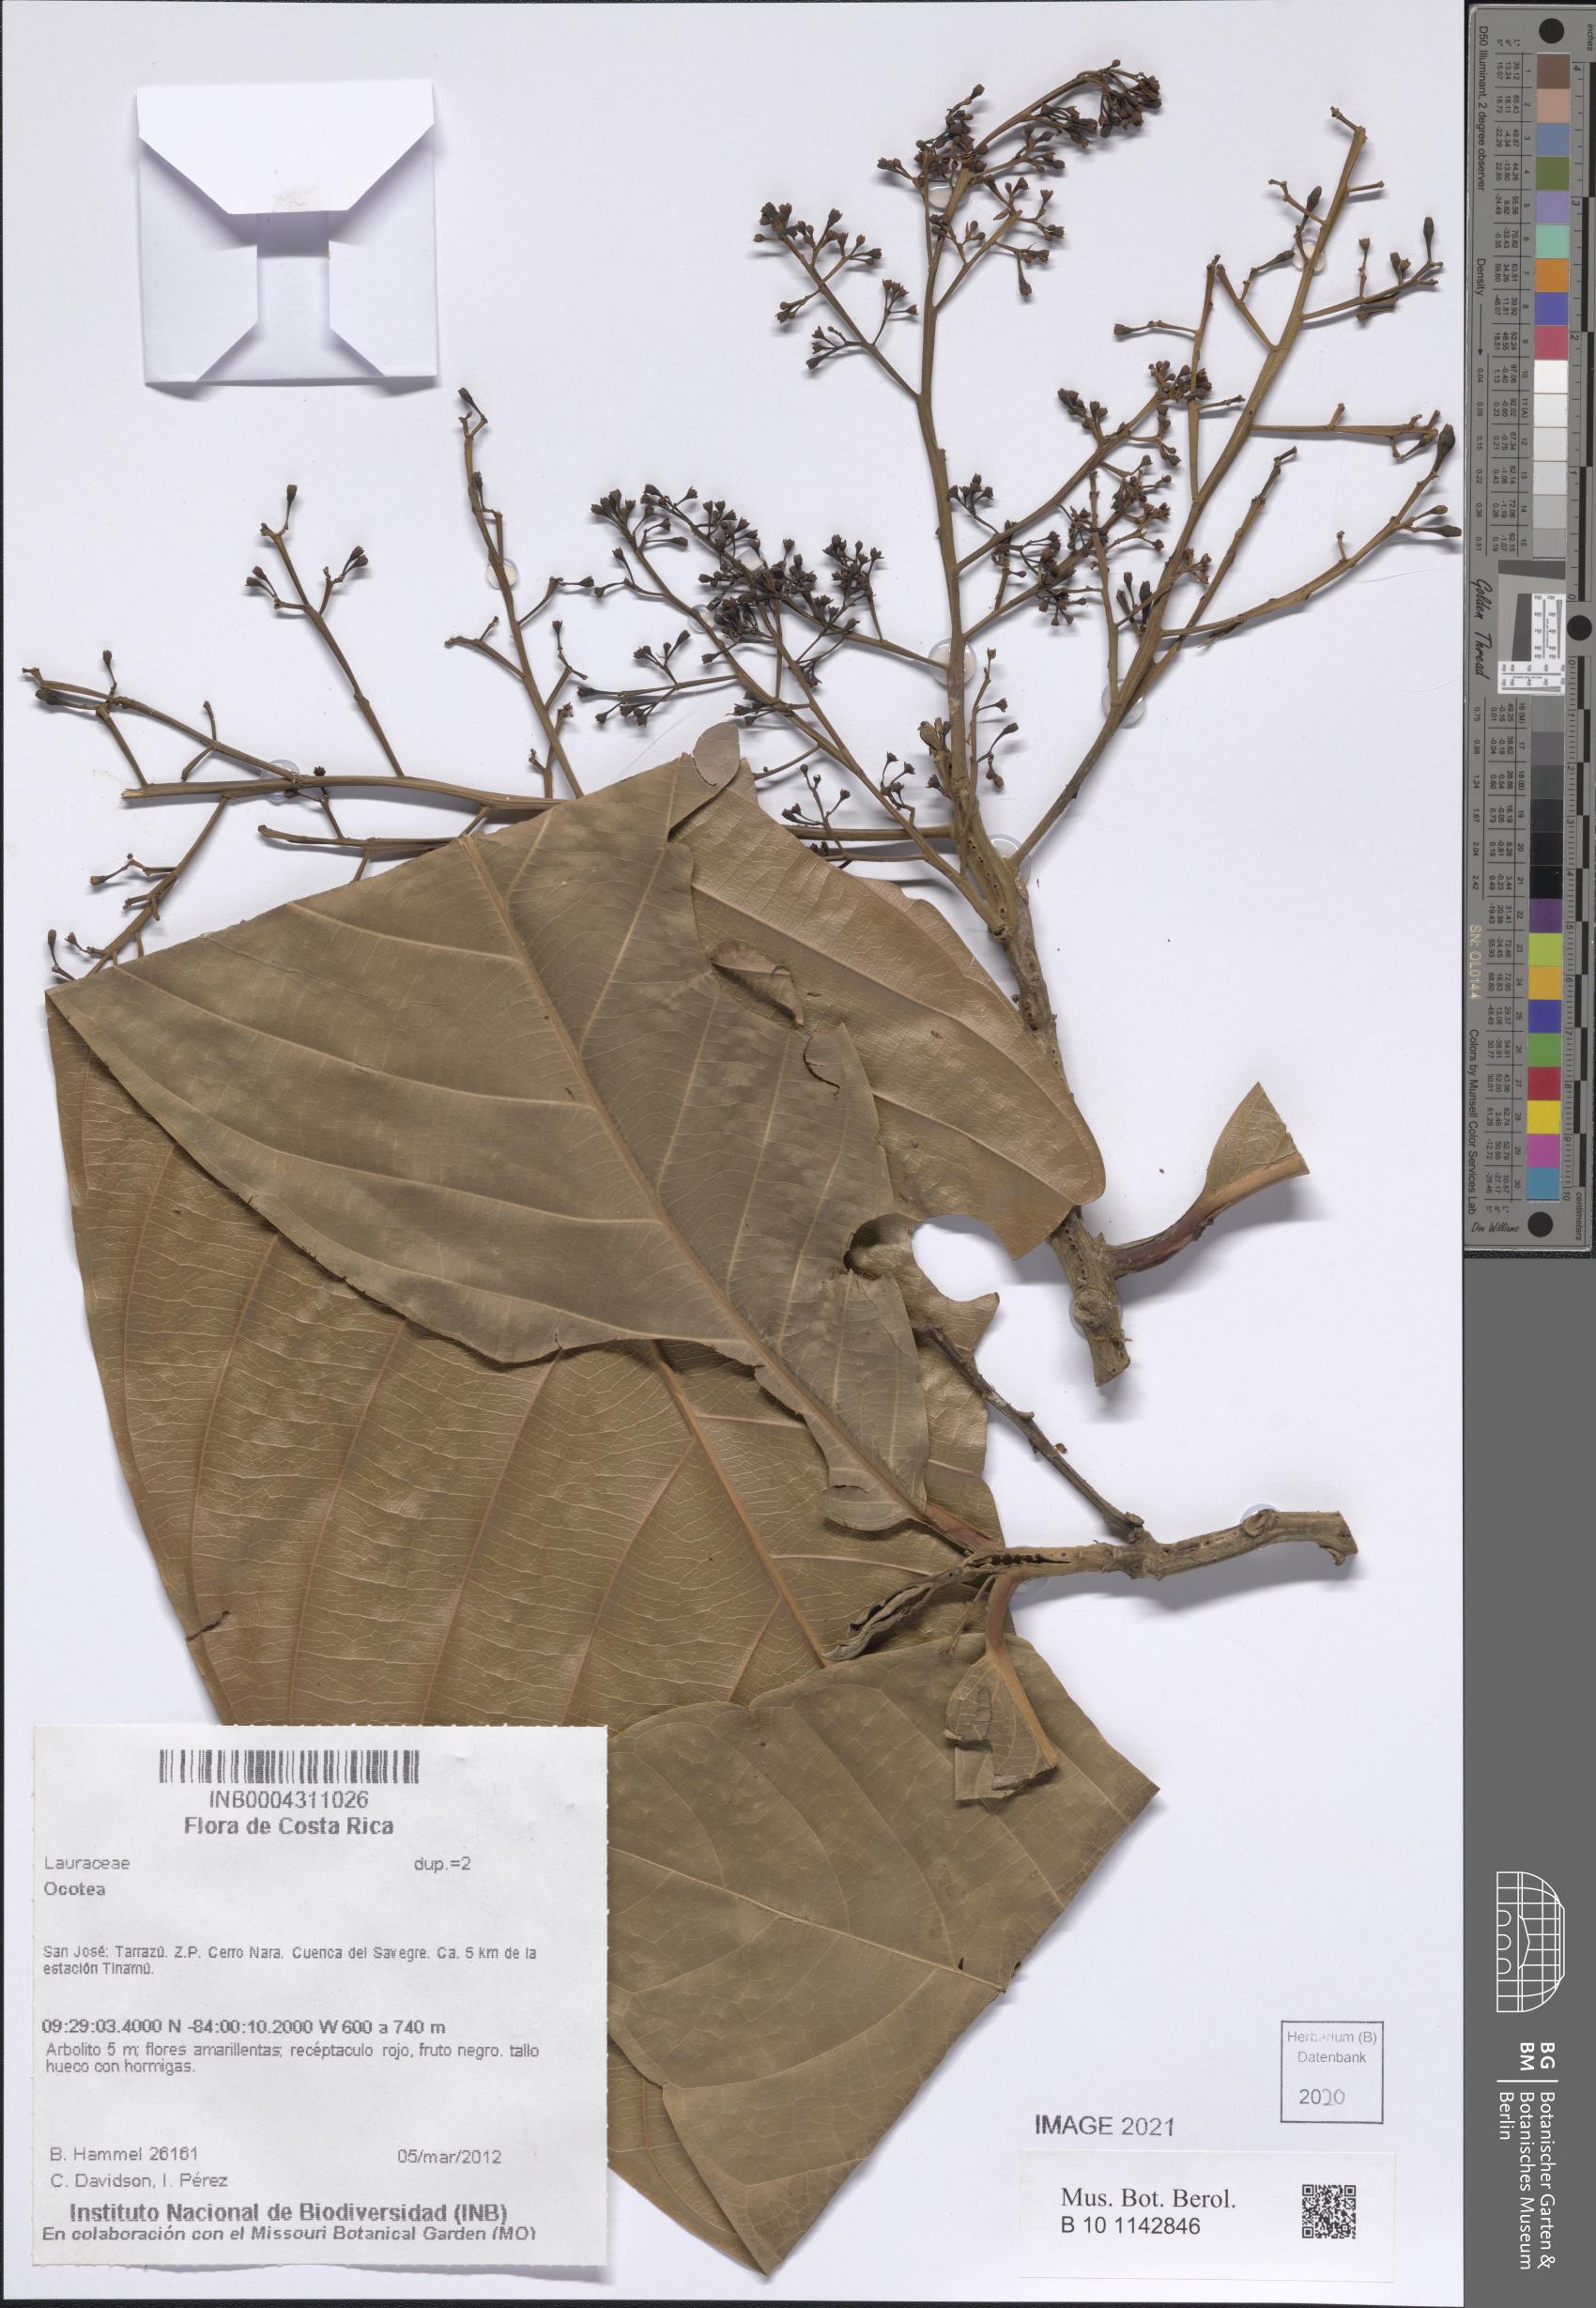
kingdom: Plantae
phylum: Tracheophyta
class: Magnoliopsida
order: Laurales
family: Lauraceae
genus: Ocotea
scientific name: Ocotea
